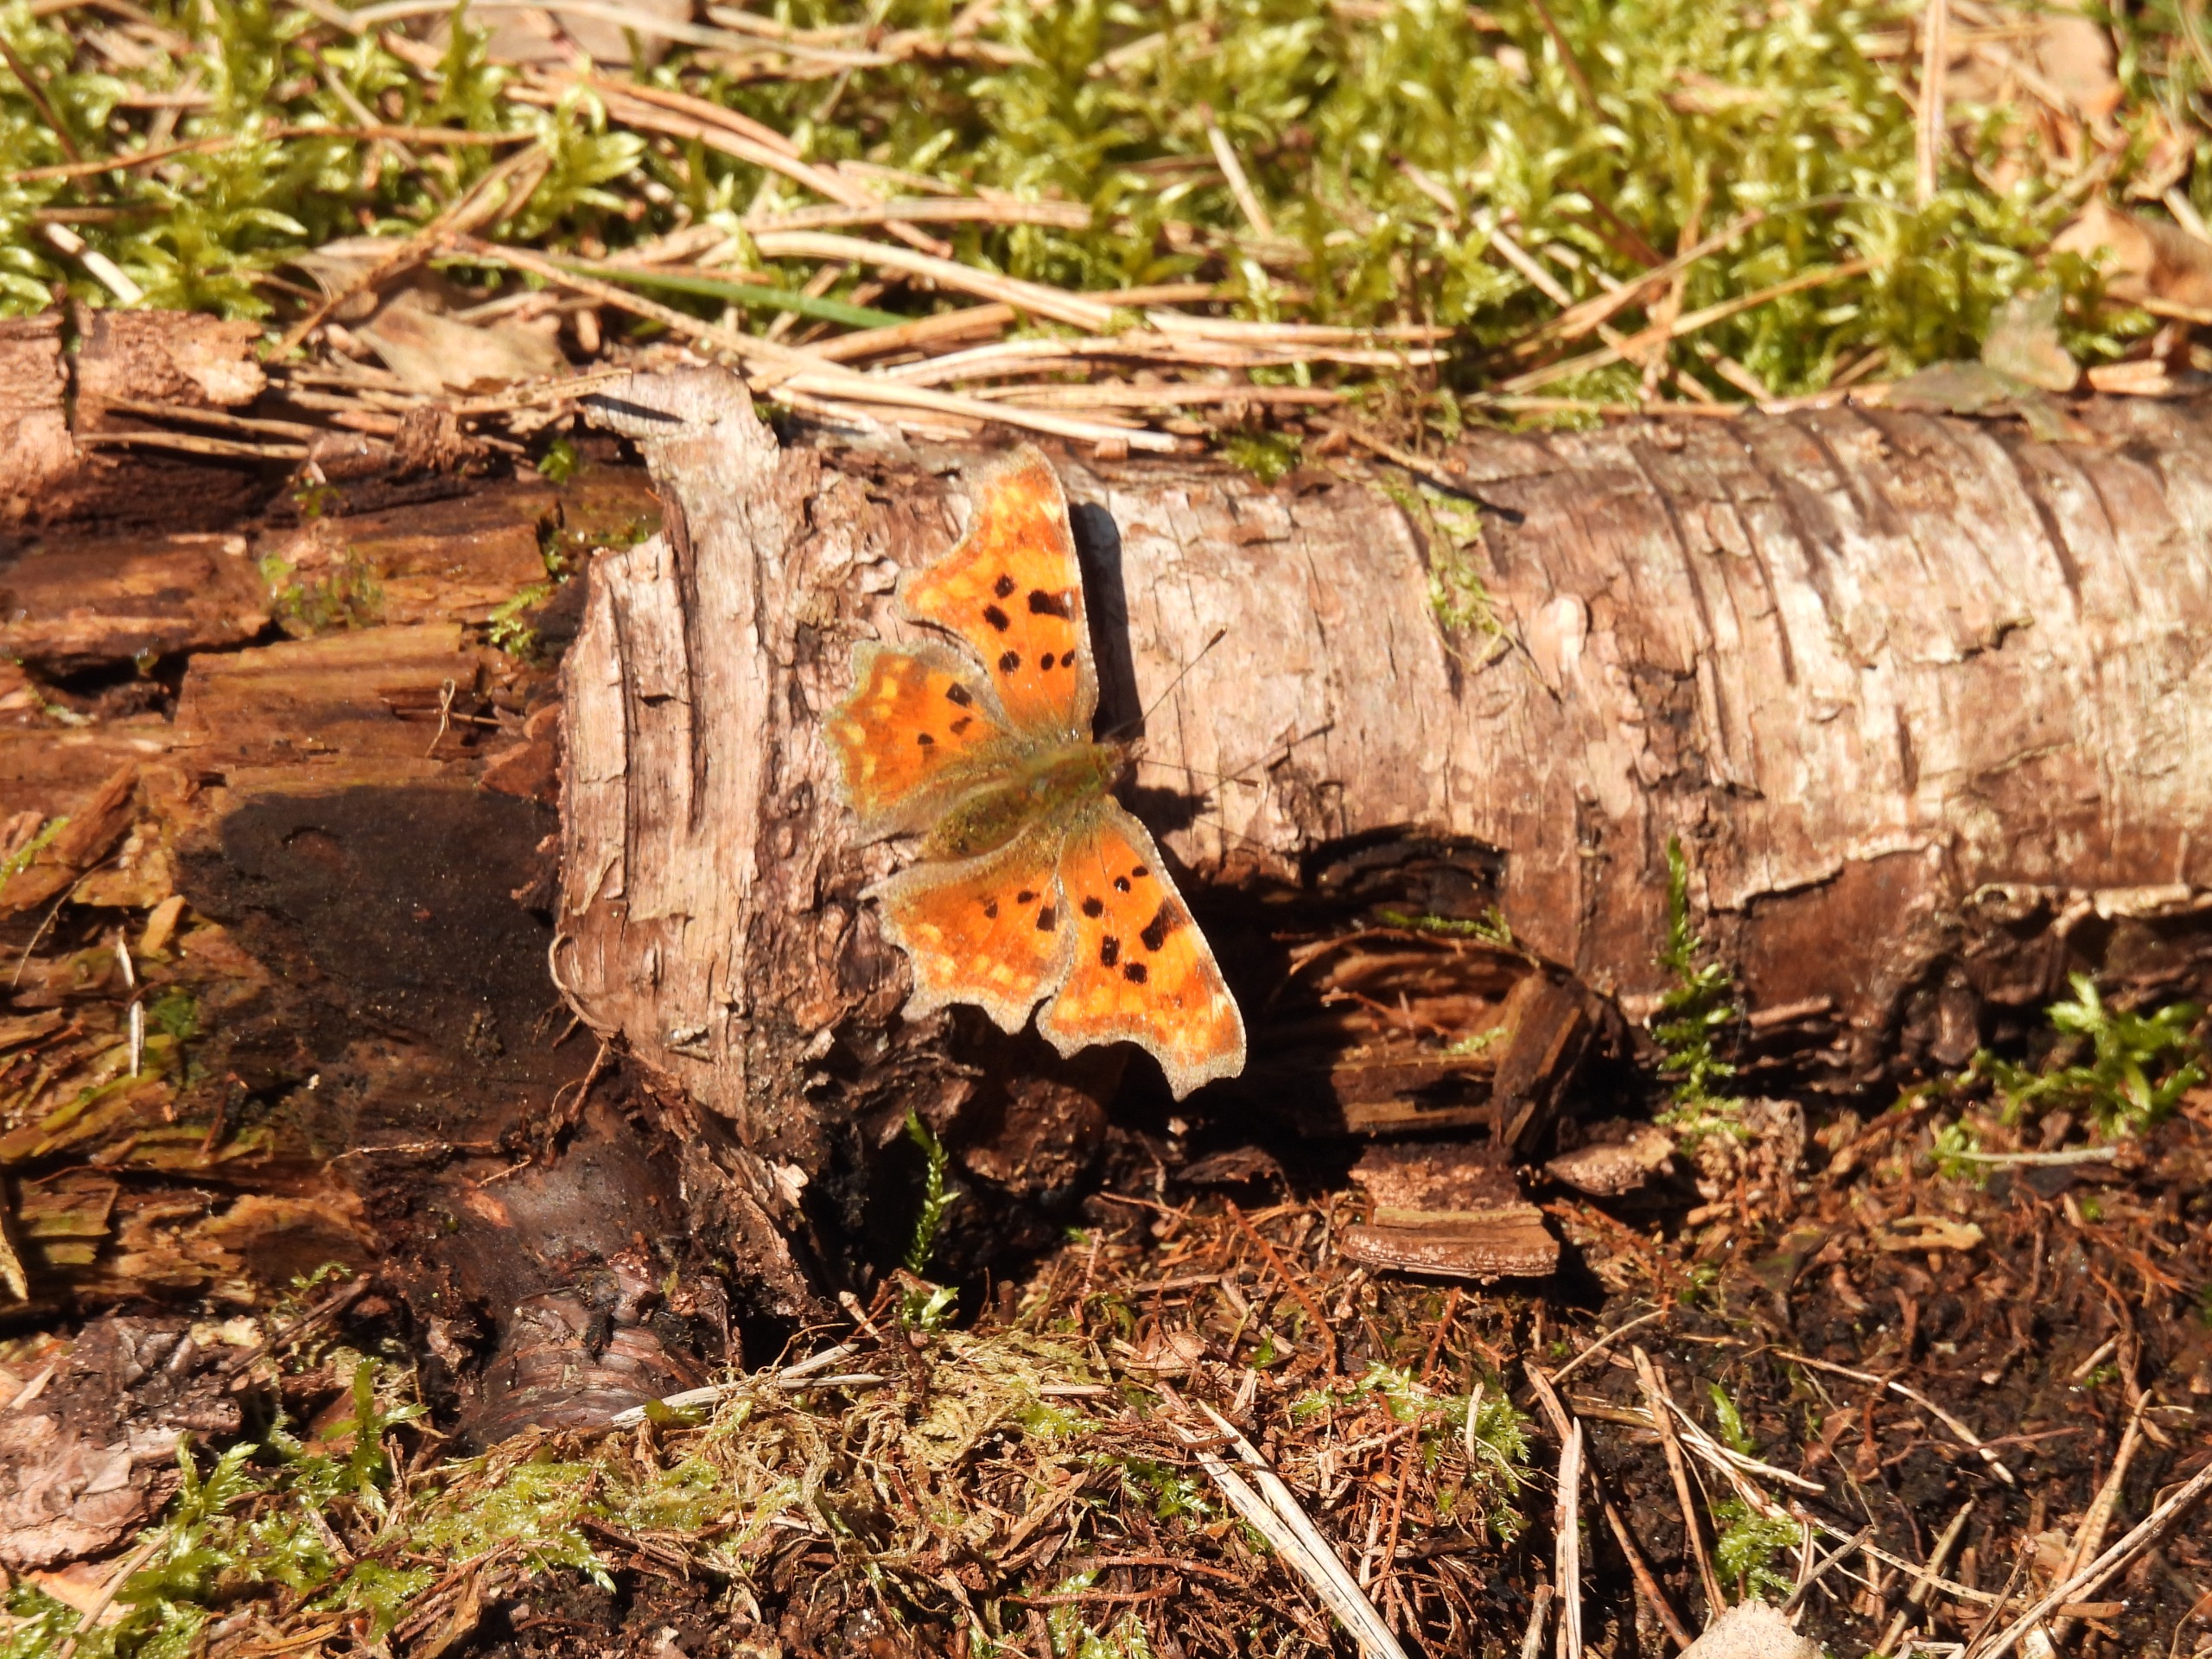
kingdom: Animalia
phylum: Arthropoda
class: Insecta
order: Lepidoptera
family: Nymphalidae
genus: Polygonia
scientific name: Polygonia c-album
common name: Det hvide C
